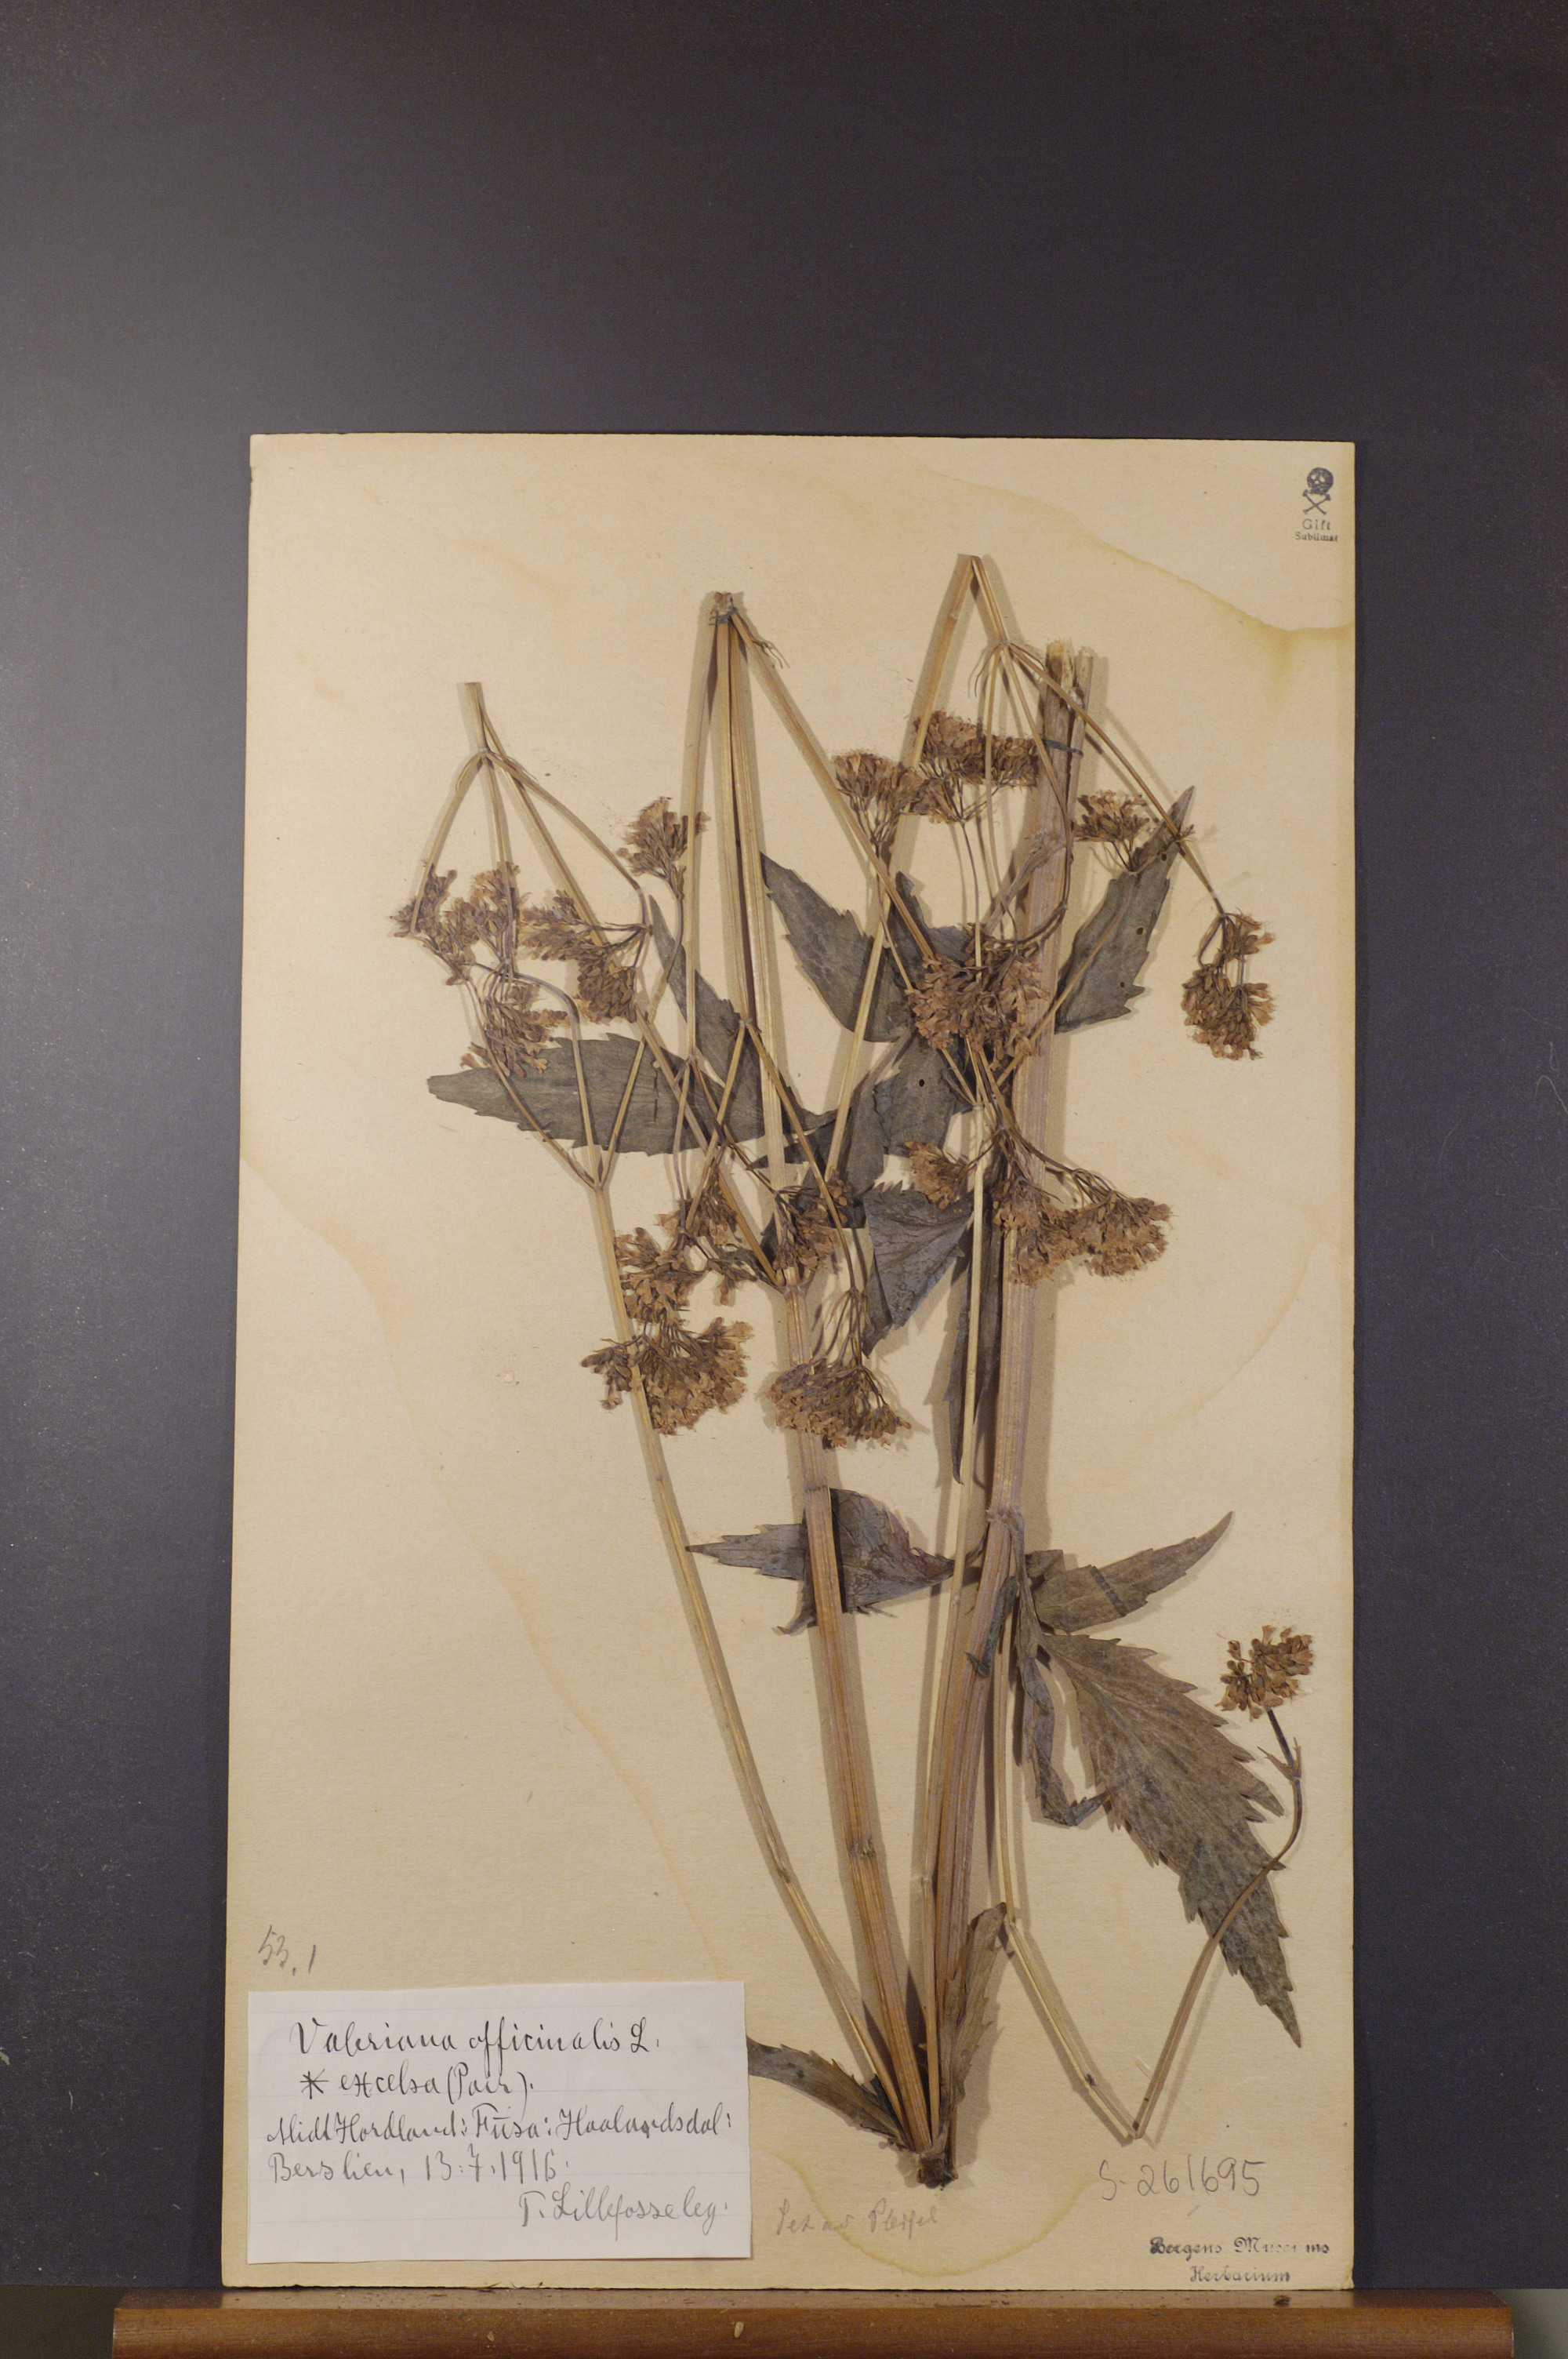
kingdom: Plantae
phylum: Tracheophyta
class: Magnoliopsida
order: Dipsacales
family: Caprifoliaceae
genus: Valeriana
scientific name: Valeriana sambucifolia
